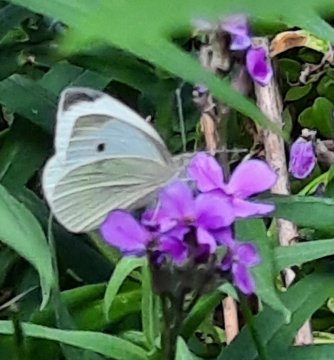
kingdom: Animalia
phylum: Arthropoda
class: Insecta
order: Lepidoptera
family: Pieridae
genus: Pieris
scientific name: Pieris rapae
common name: Cabbage White
